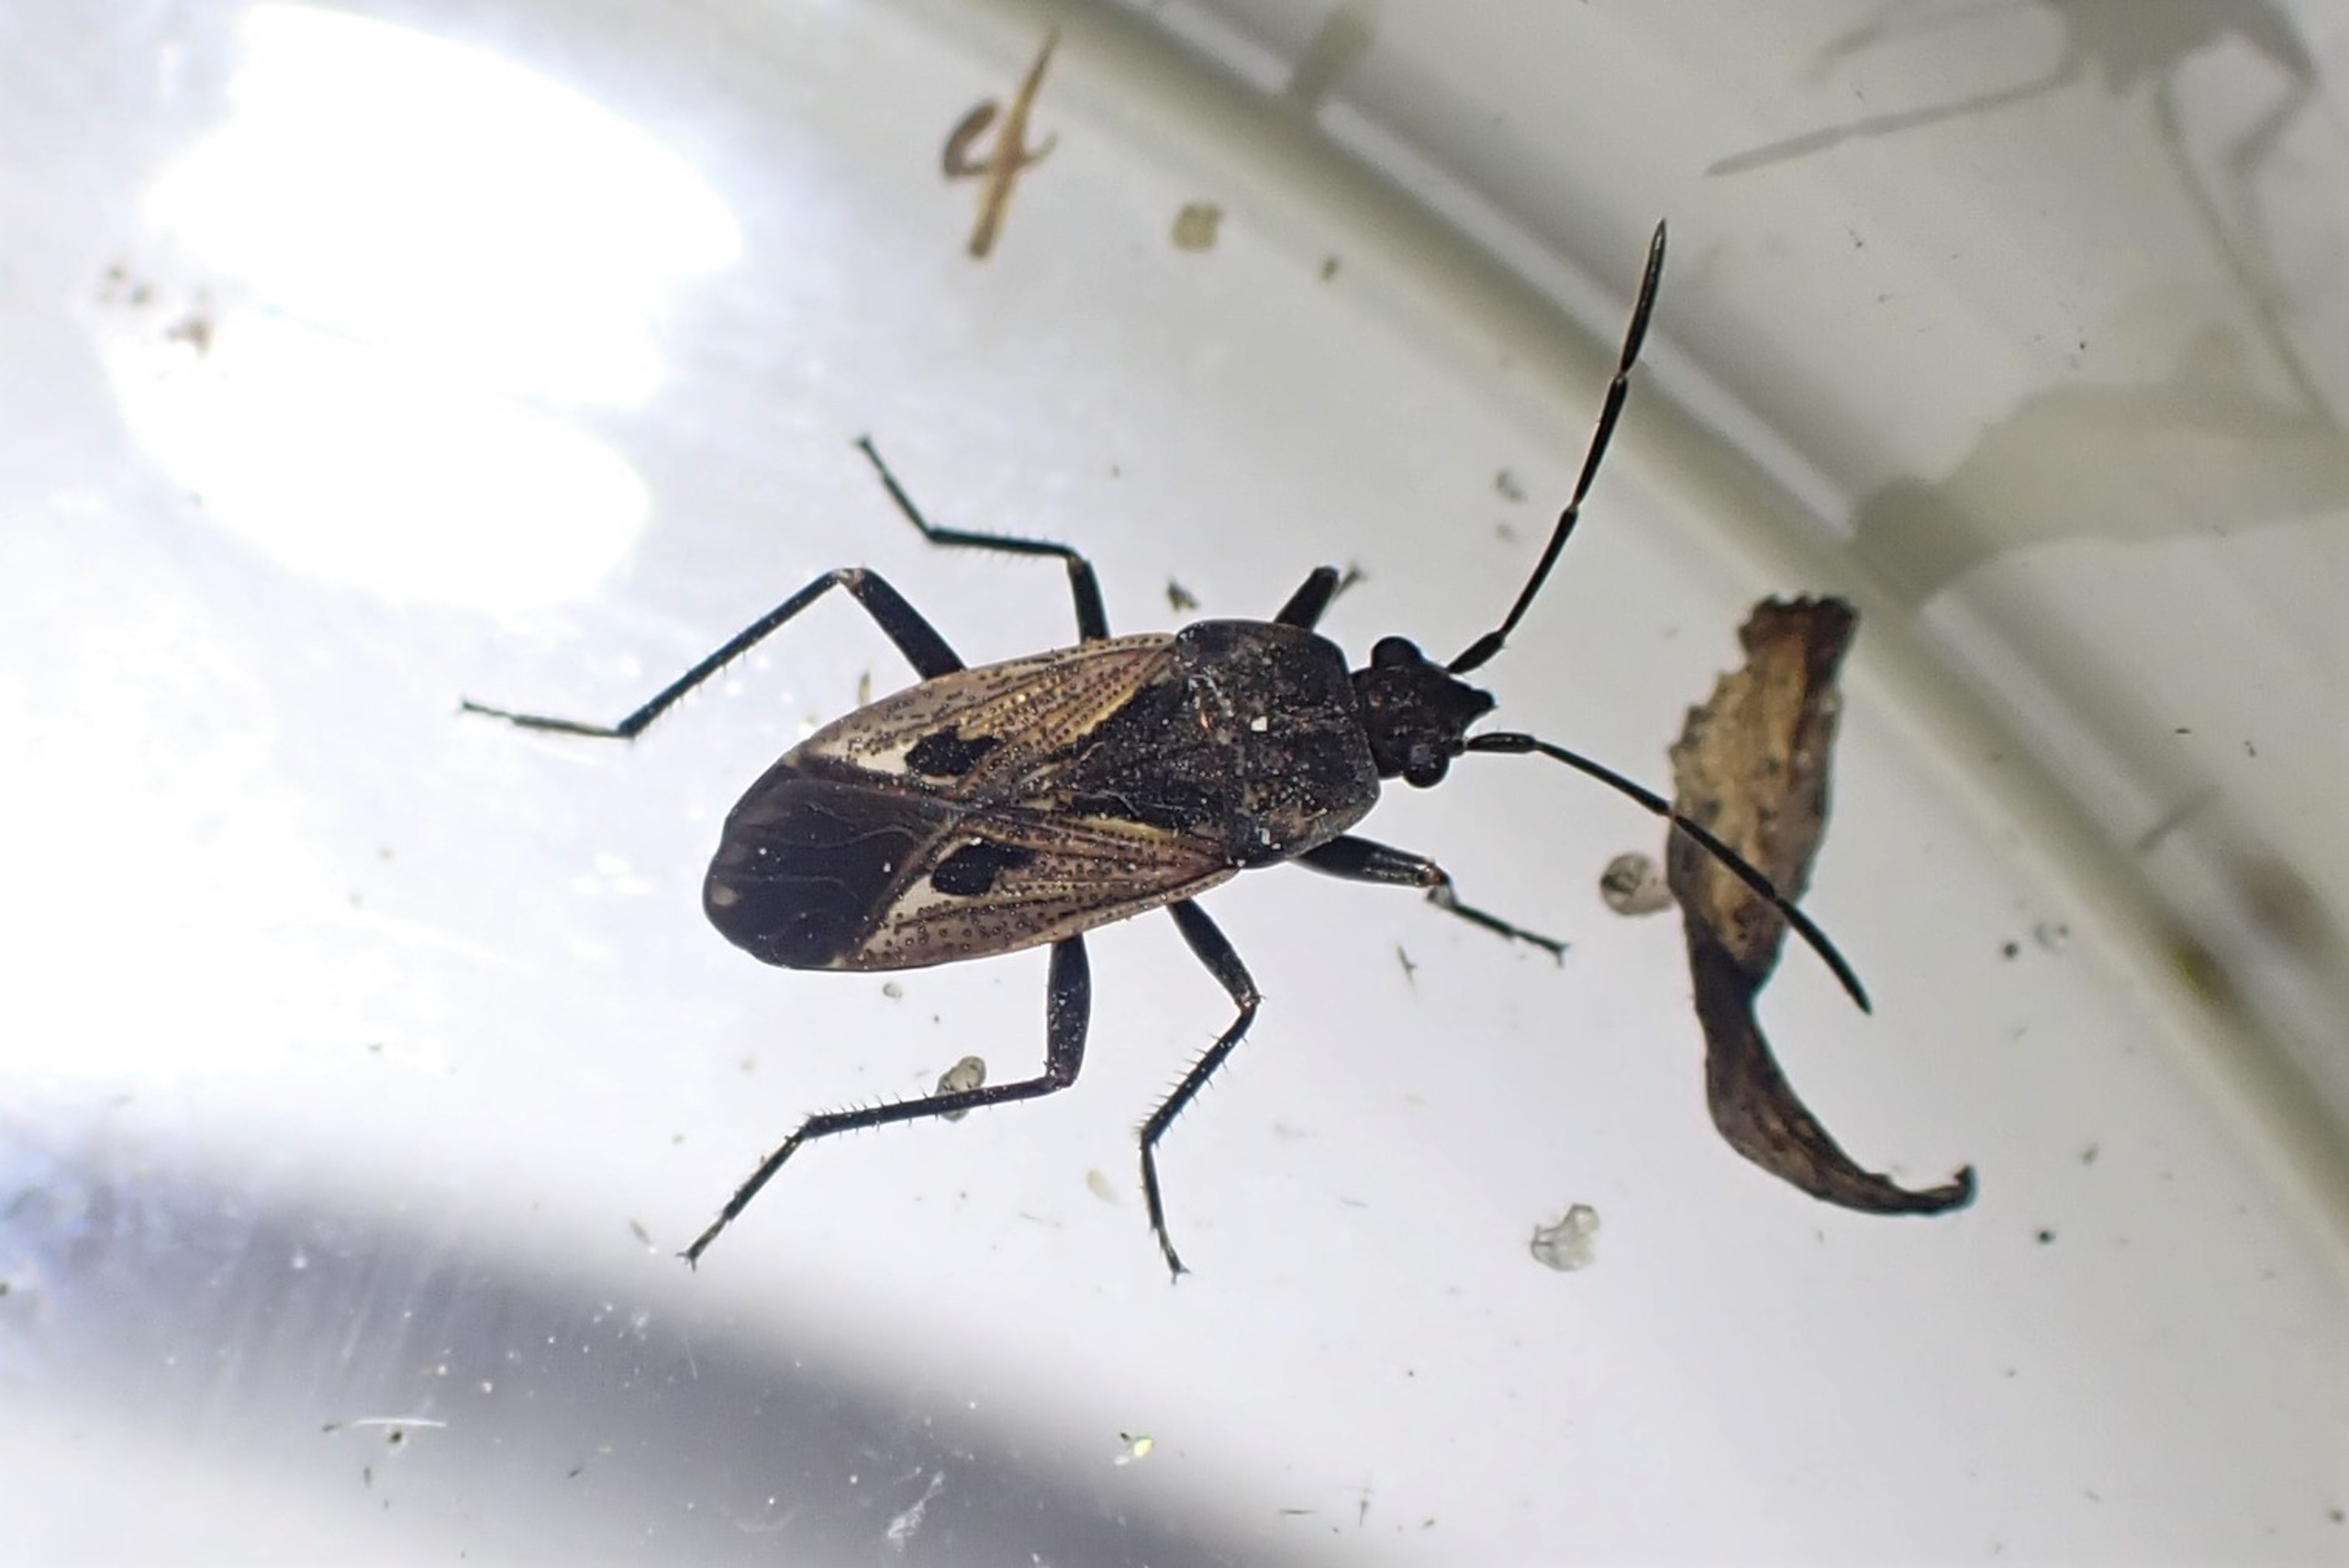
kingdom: Animalia
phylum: Arthropoda
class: Insecta
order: Hemiptera
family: Rhyparochromidae
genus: Rhyparochromus
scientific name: Rhyparochromus pini
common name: Stor frøtæge
